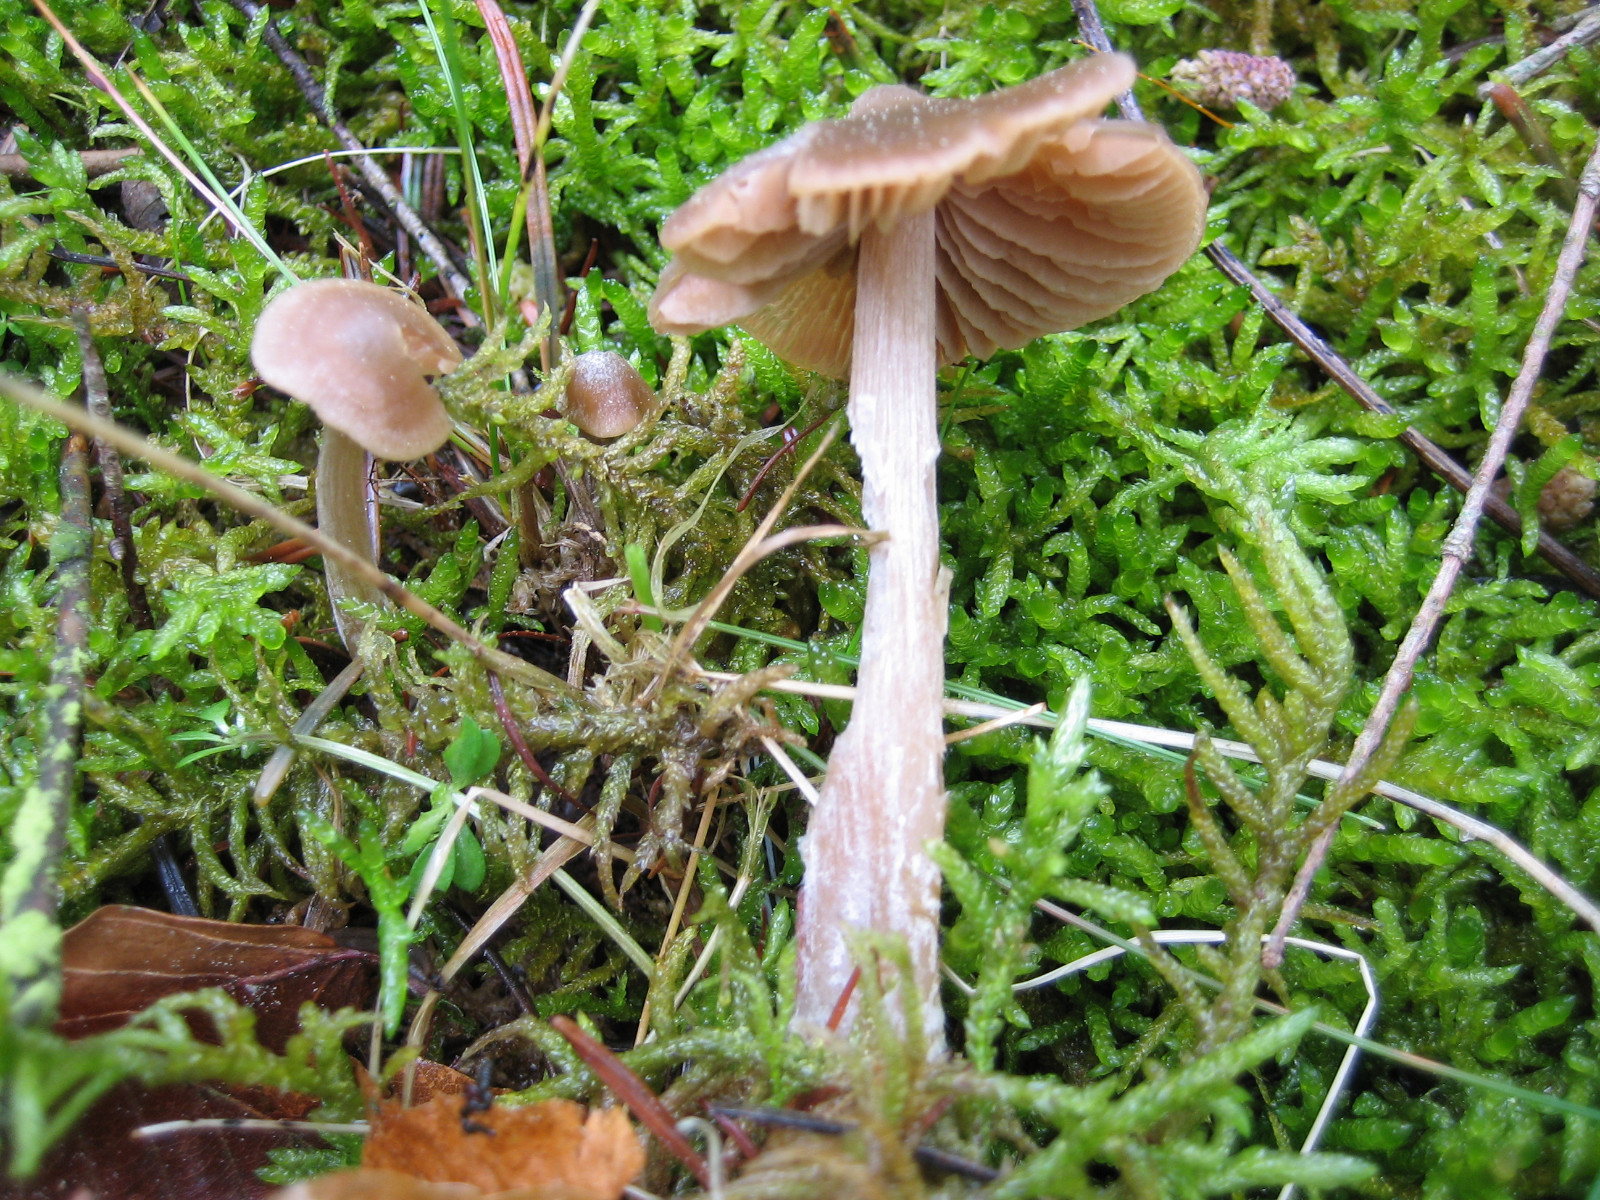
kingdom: Fungi
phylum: Basidiomycota
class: Agaricomycetes
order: Agaricales
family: Entolomataceae
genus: Entoloma
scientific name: Entoloma cuneatum
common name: dunstokket rødblad
